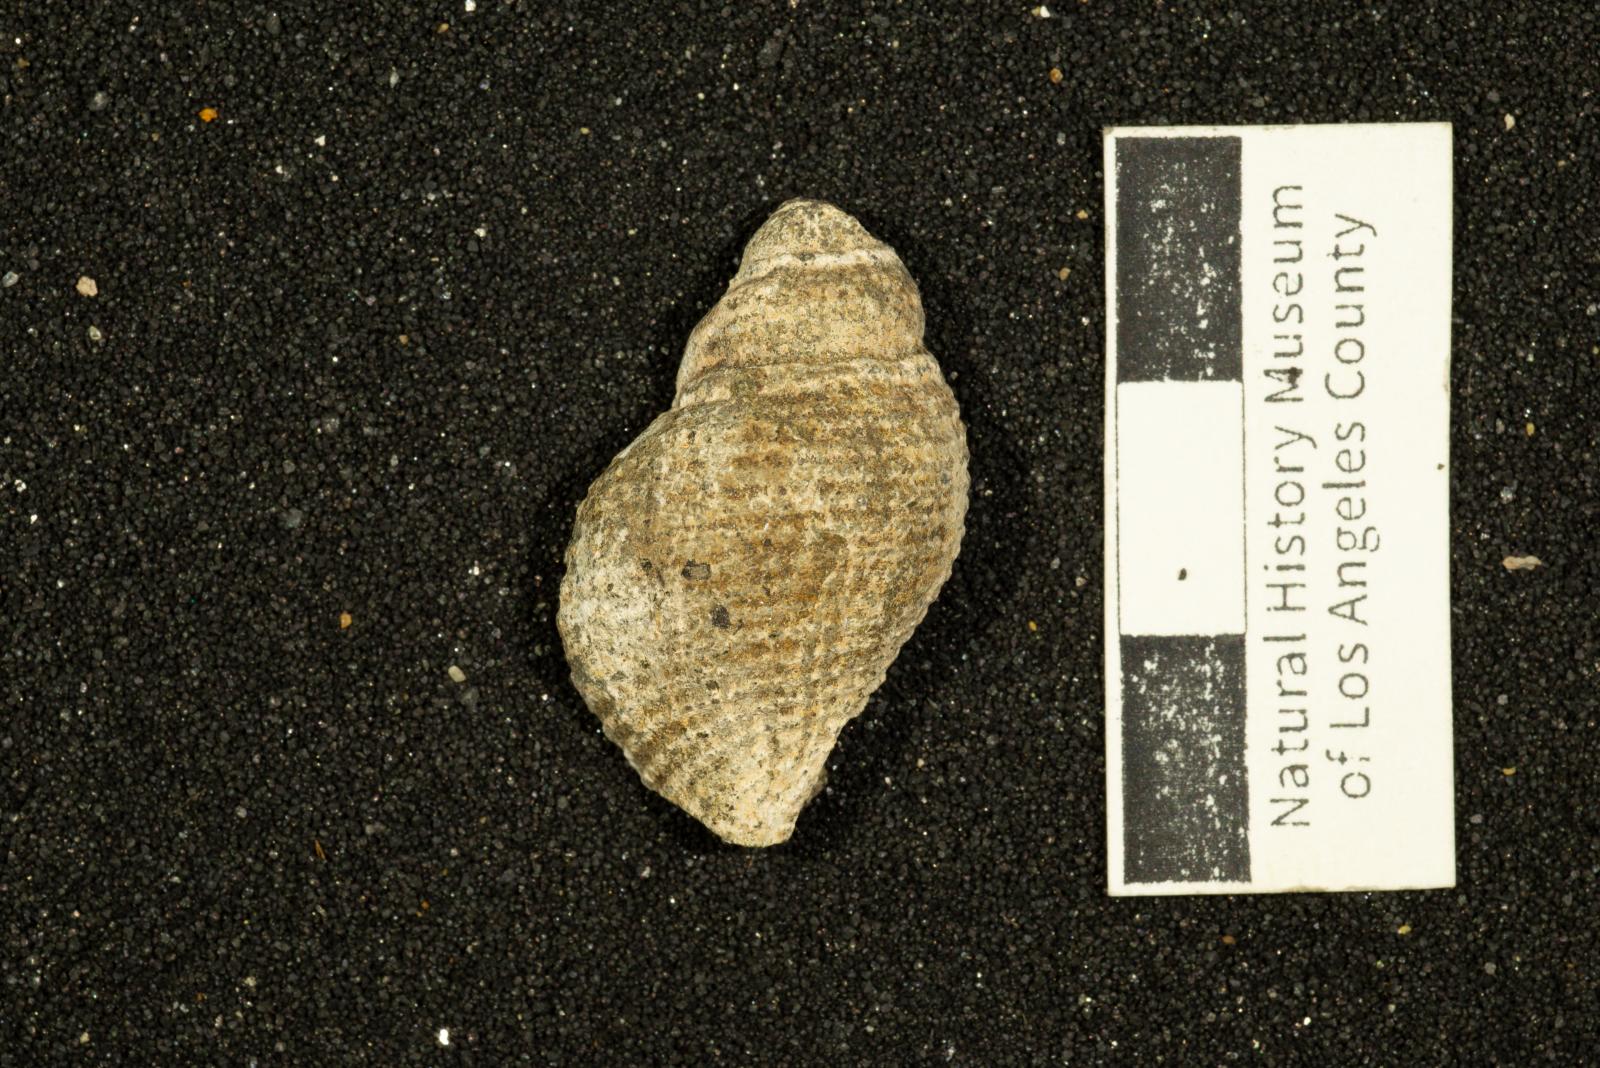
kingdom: Animalia
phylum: Mollusca
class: Gastropoda
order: Neogastropoda
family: Perissityidae
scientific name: Perissityidae
